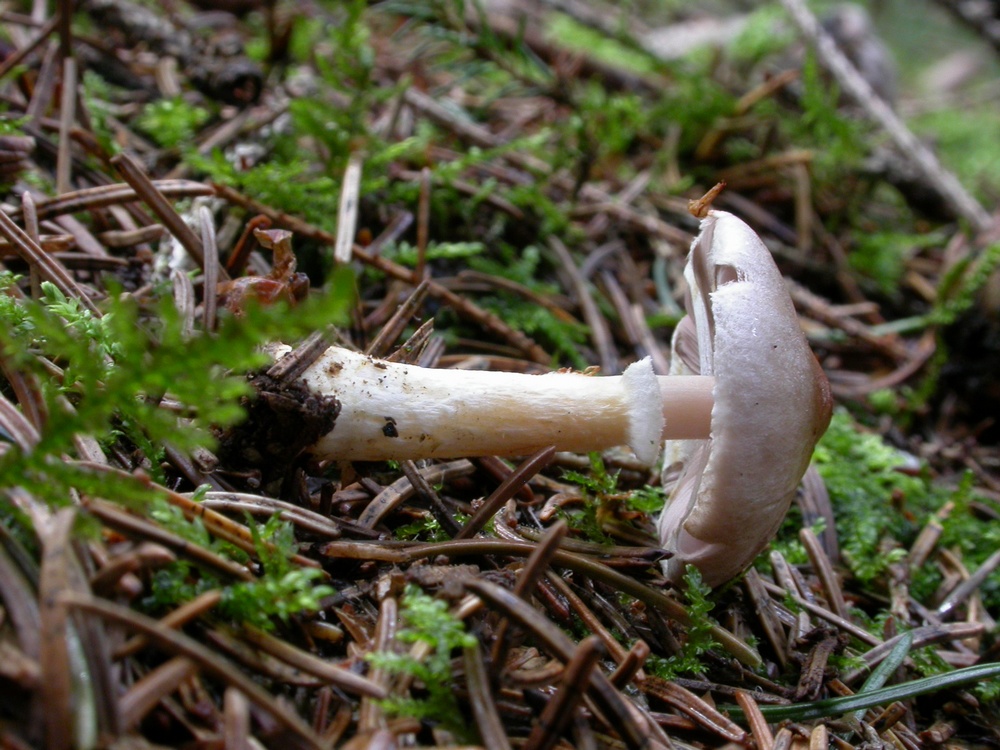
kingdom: Fungi
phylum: Basidiomycota
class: Agaricomycetes
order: Agaricales
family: Agaricaceae
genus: Agaricus
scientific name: Agaricus dulcidulus
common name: blegrød champignon
